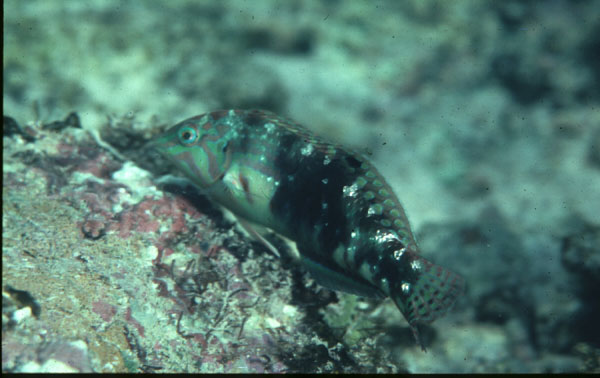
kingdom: Animalia
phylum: Chordata
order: Perciformes
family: Labridae
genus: Halichoeres
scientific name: Halichoeres nebulosus
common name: Clouded wrasse
